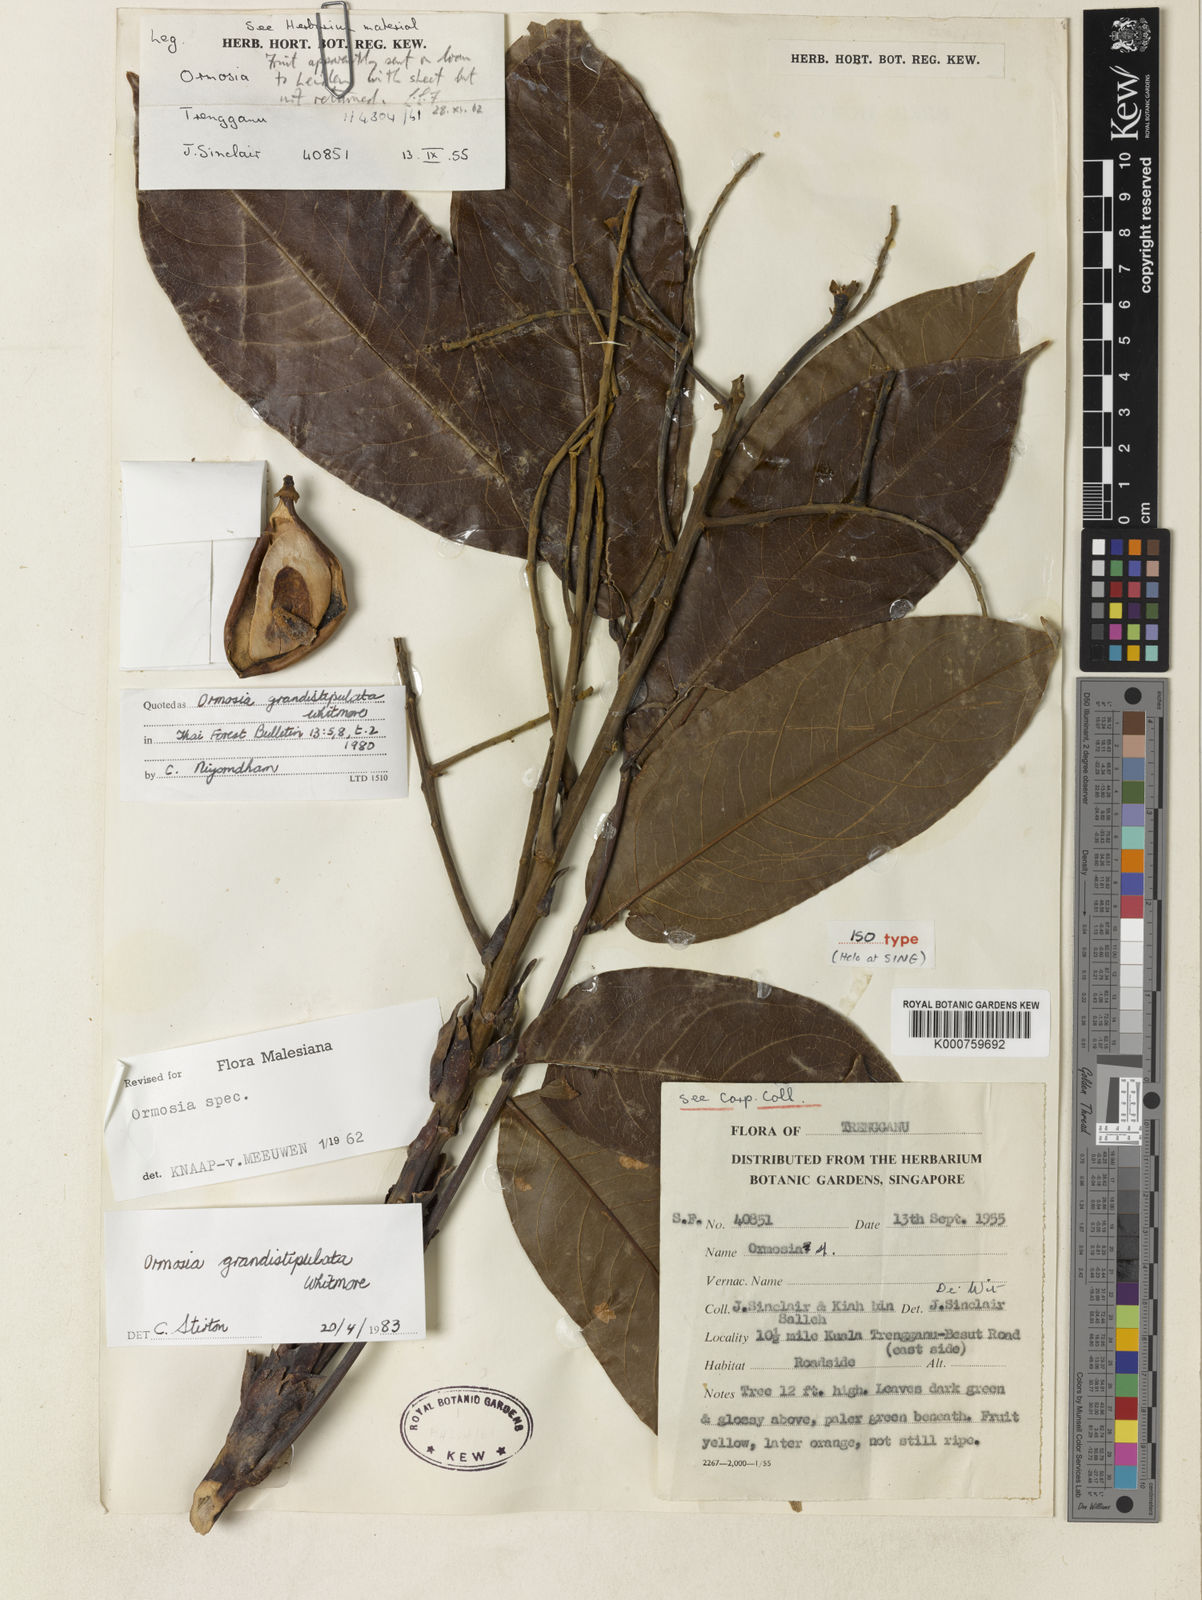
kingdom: Plantae
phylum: Tracheophyta
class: Magnoliopsida
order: Fabales
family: Fabaceae
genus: Ormosia
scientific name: Ormosia grandistipulata
